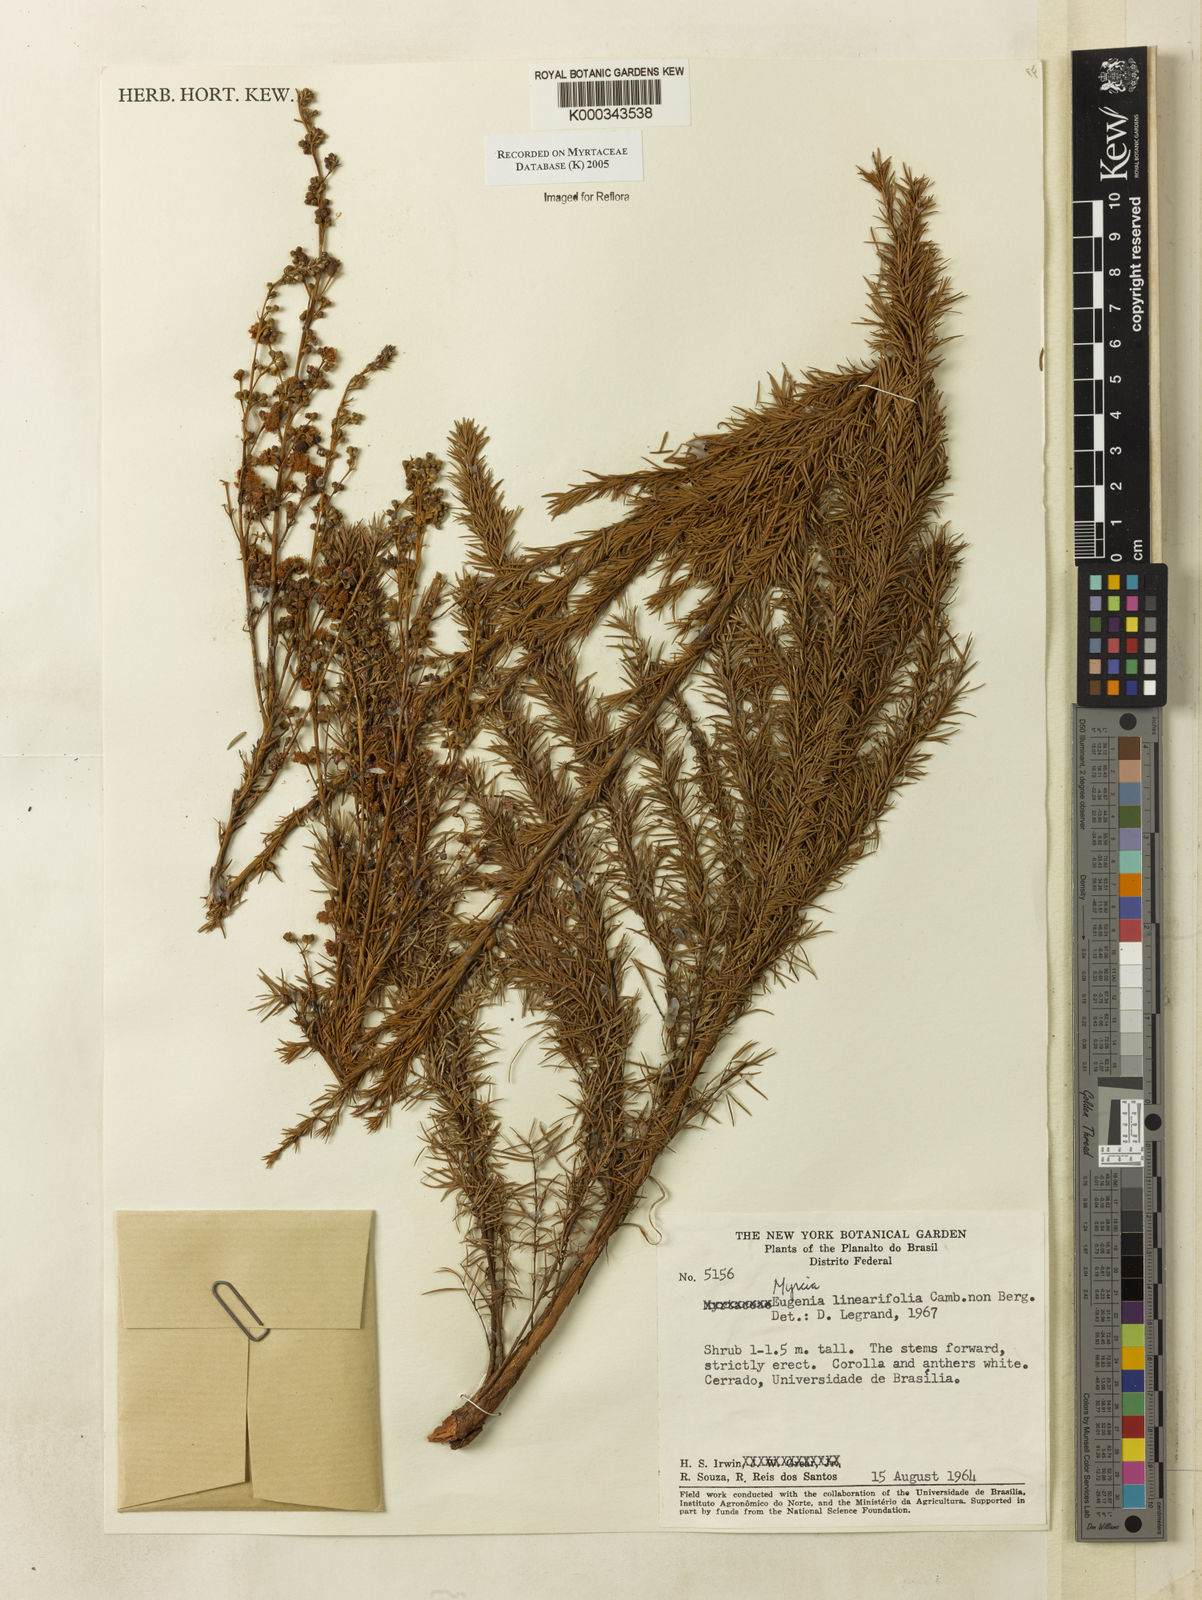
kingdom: Plantae
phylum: Tracheophyta
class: Magnoliopsida
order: Myrtales
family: Myrtaceae
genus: Myrcia
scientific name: Myrcia linearifolia
